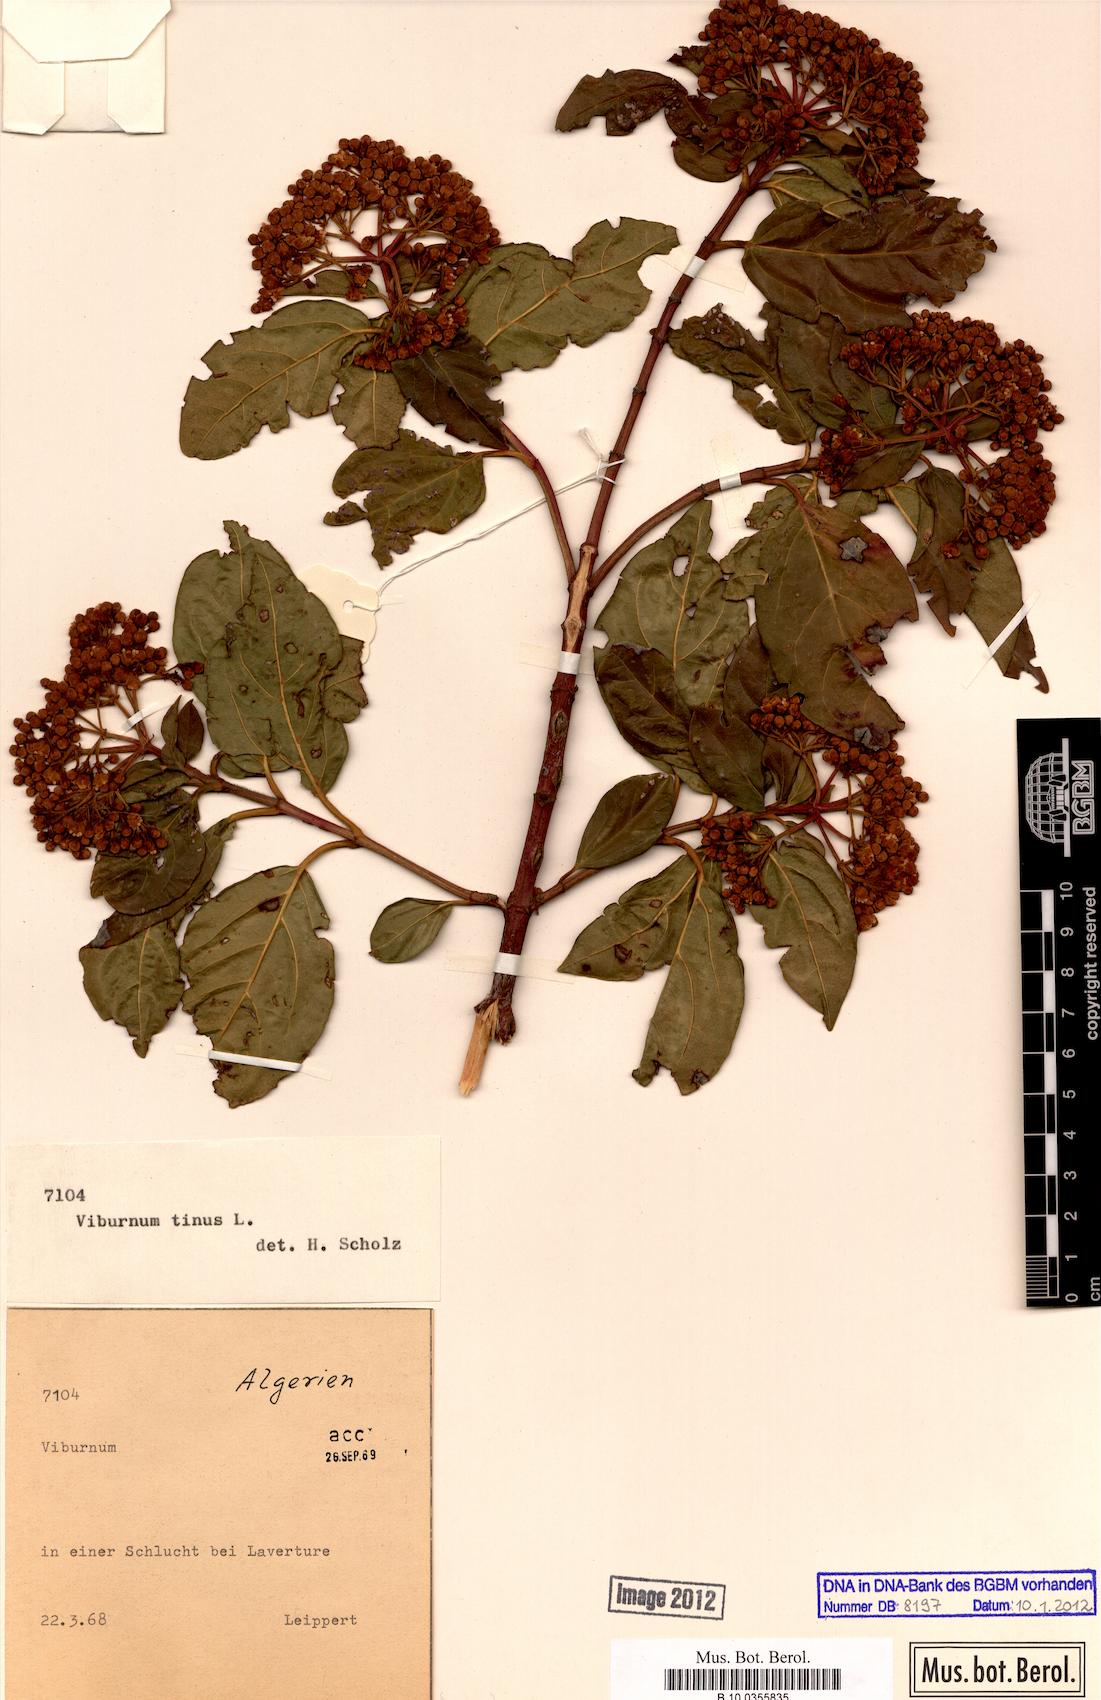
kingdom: Plantae
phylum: Tracheophyta
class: Magnoliopsida
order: Dipsacales
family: Viburnaceae
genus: Viburnum
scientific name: Viburnum tinus
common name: Laurustinus
